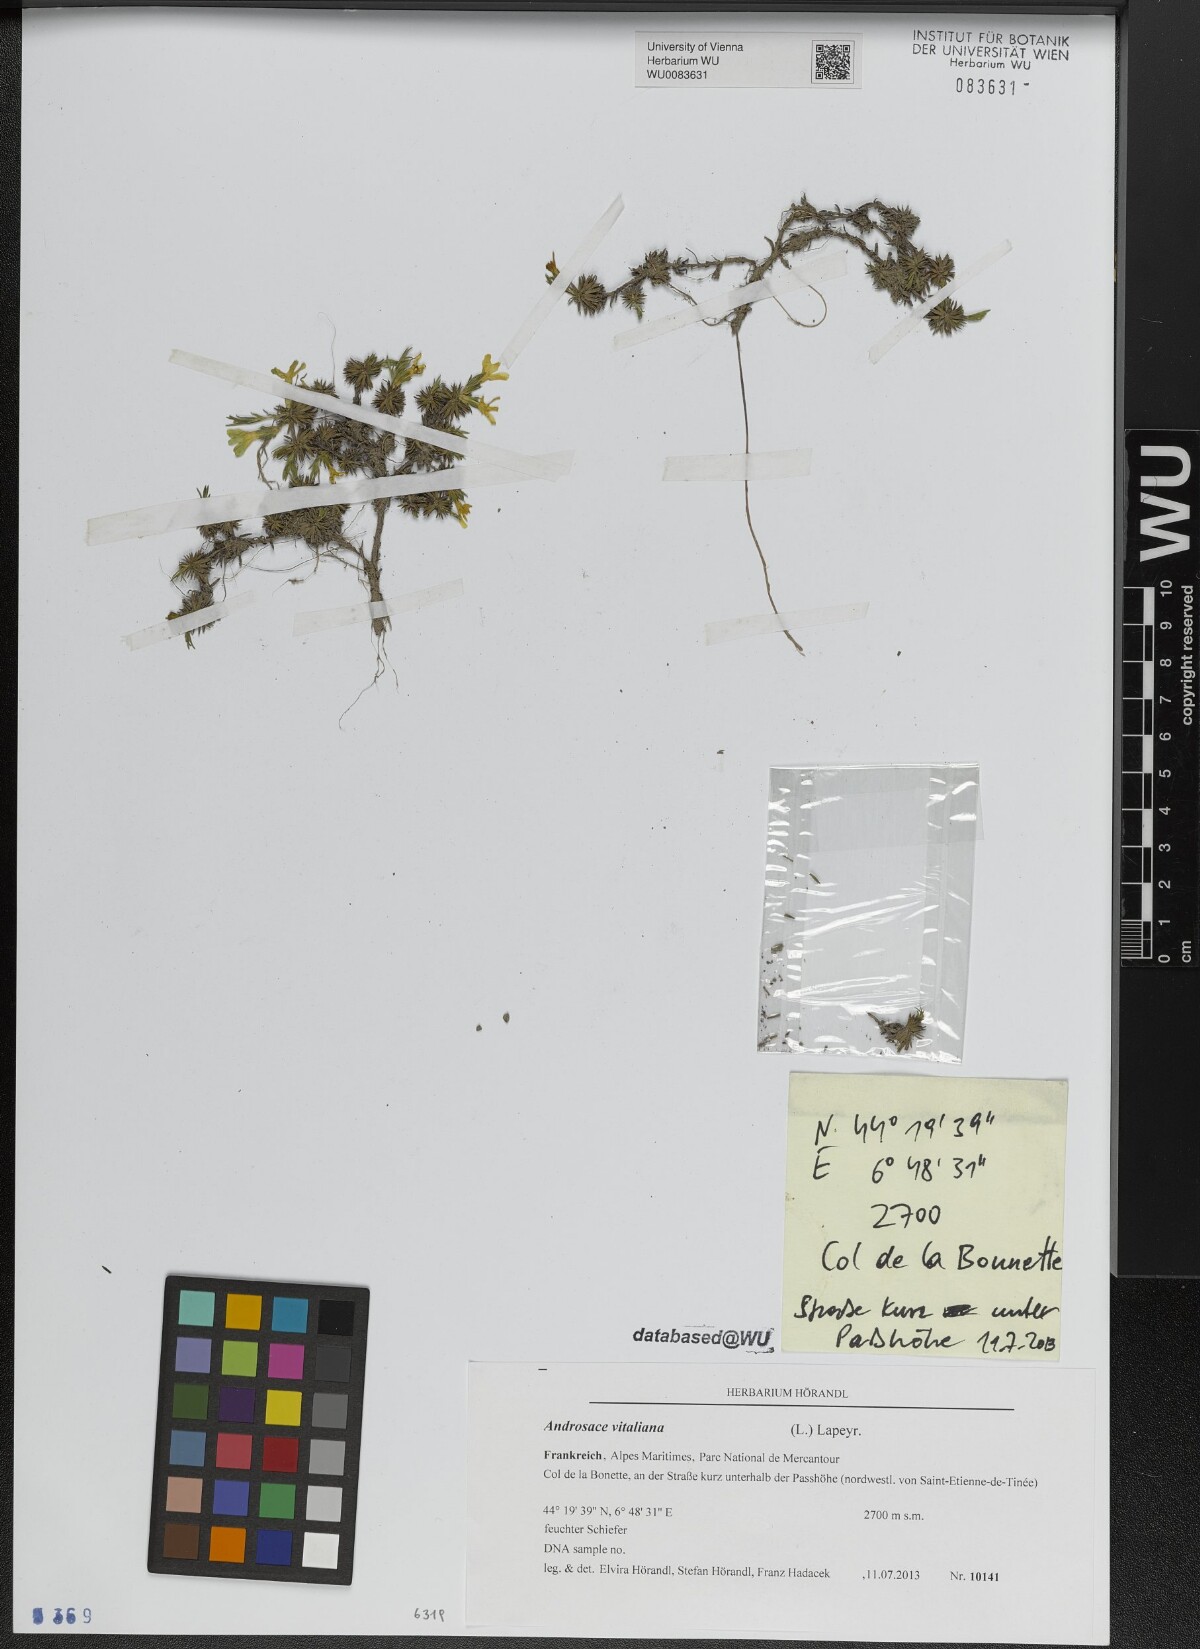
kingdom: Plantae
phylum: Tracheophyta
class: Magnoliopsida
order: Ericales
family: Primulaceae
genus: Androsace
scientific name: Androsace vitaliana
